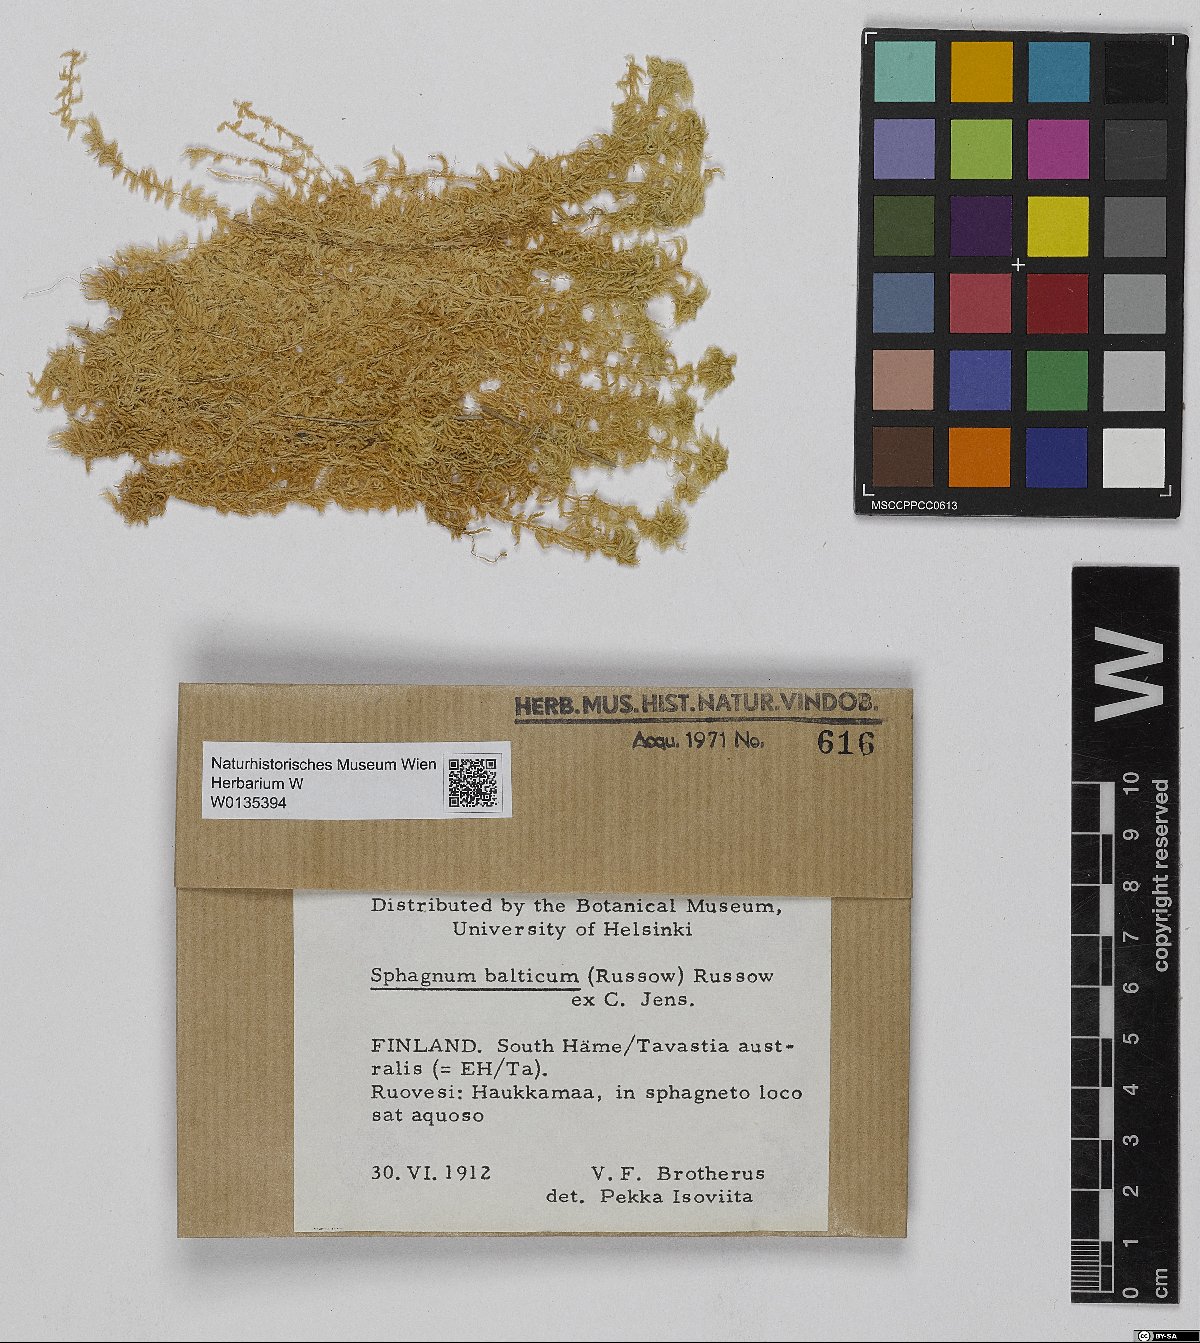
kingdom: Plantae
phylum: Bryophyta
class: Sphagnopsida
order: Sphagnales
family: Sphagnaceae
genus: Sphagnum
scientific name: Sphagnum balticum
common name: Baltic bog-moss
